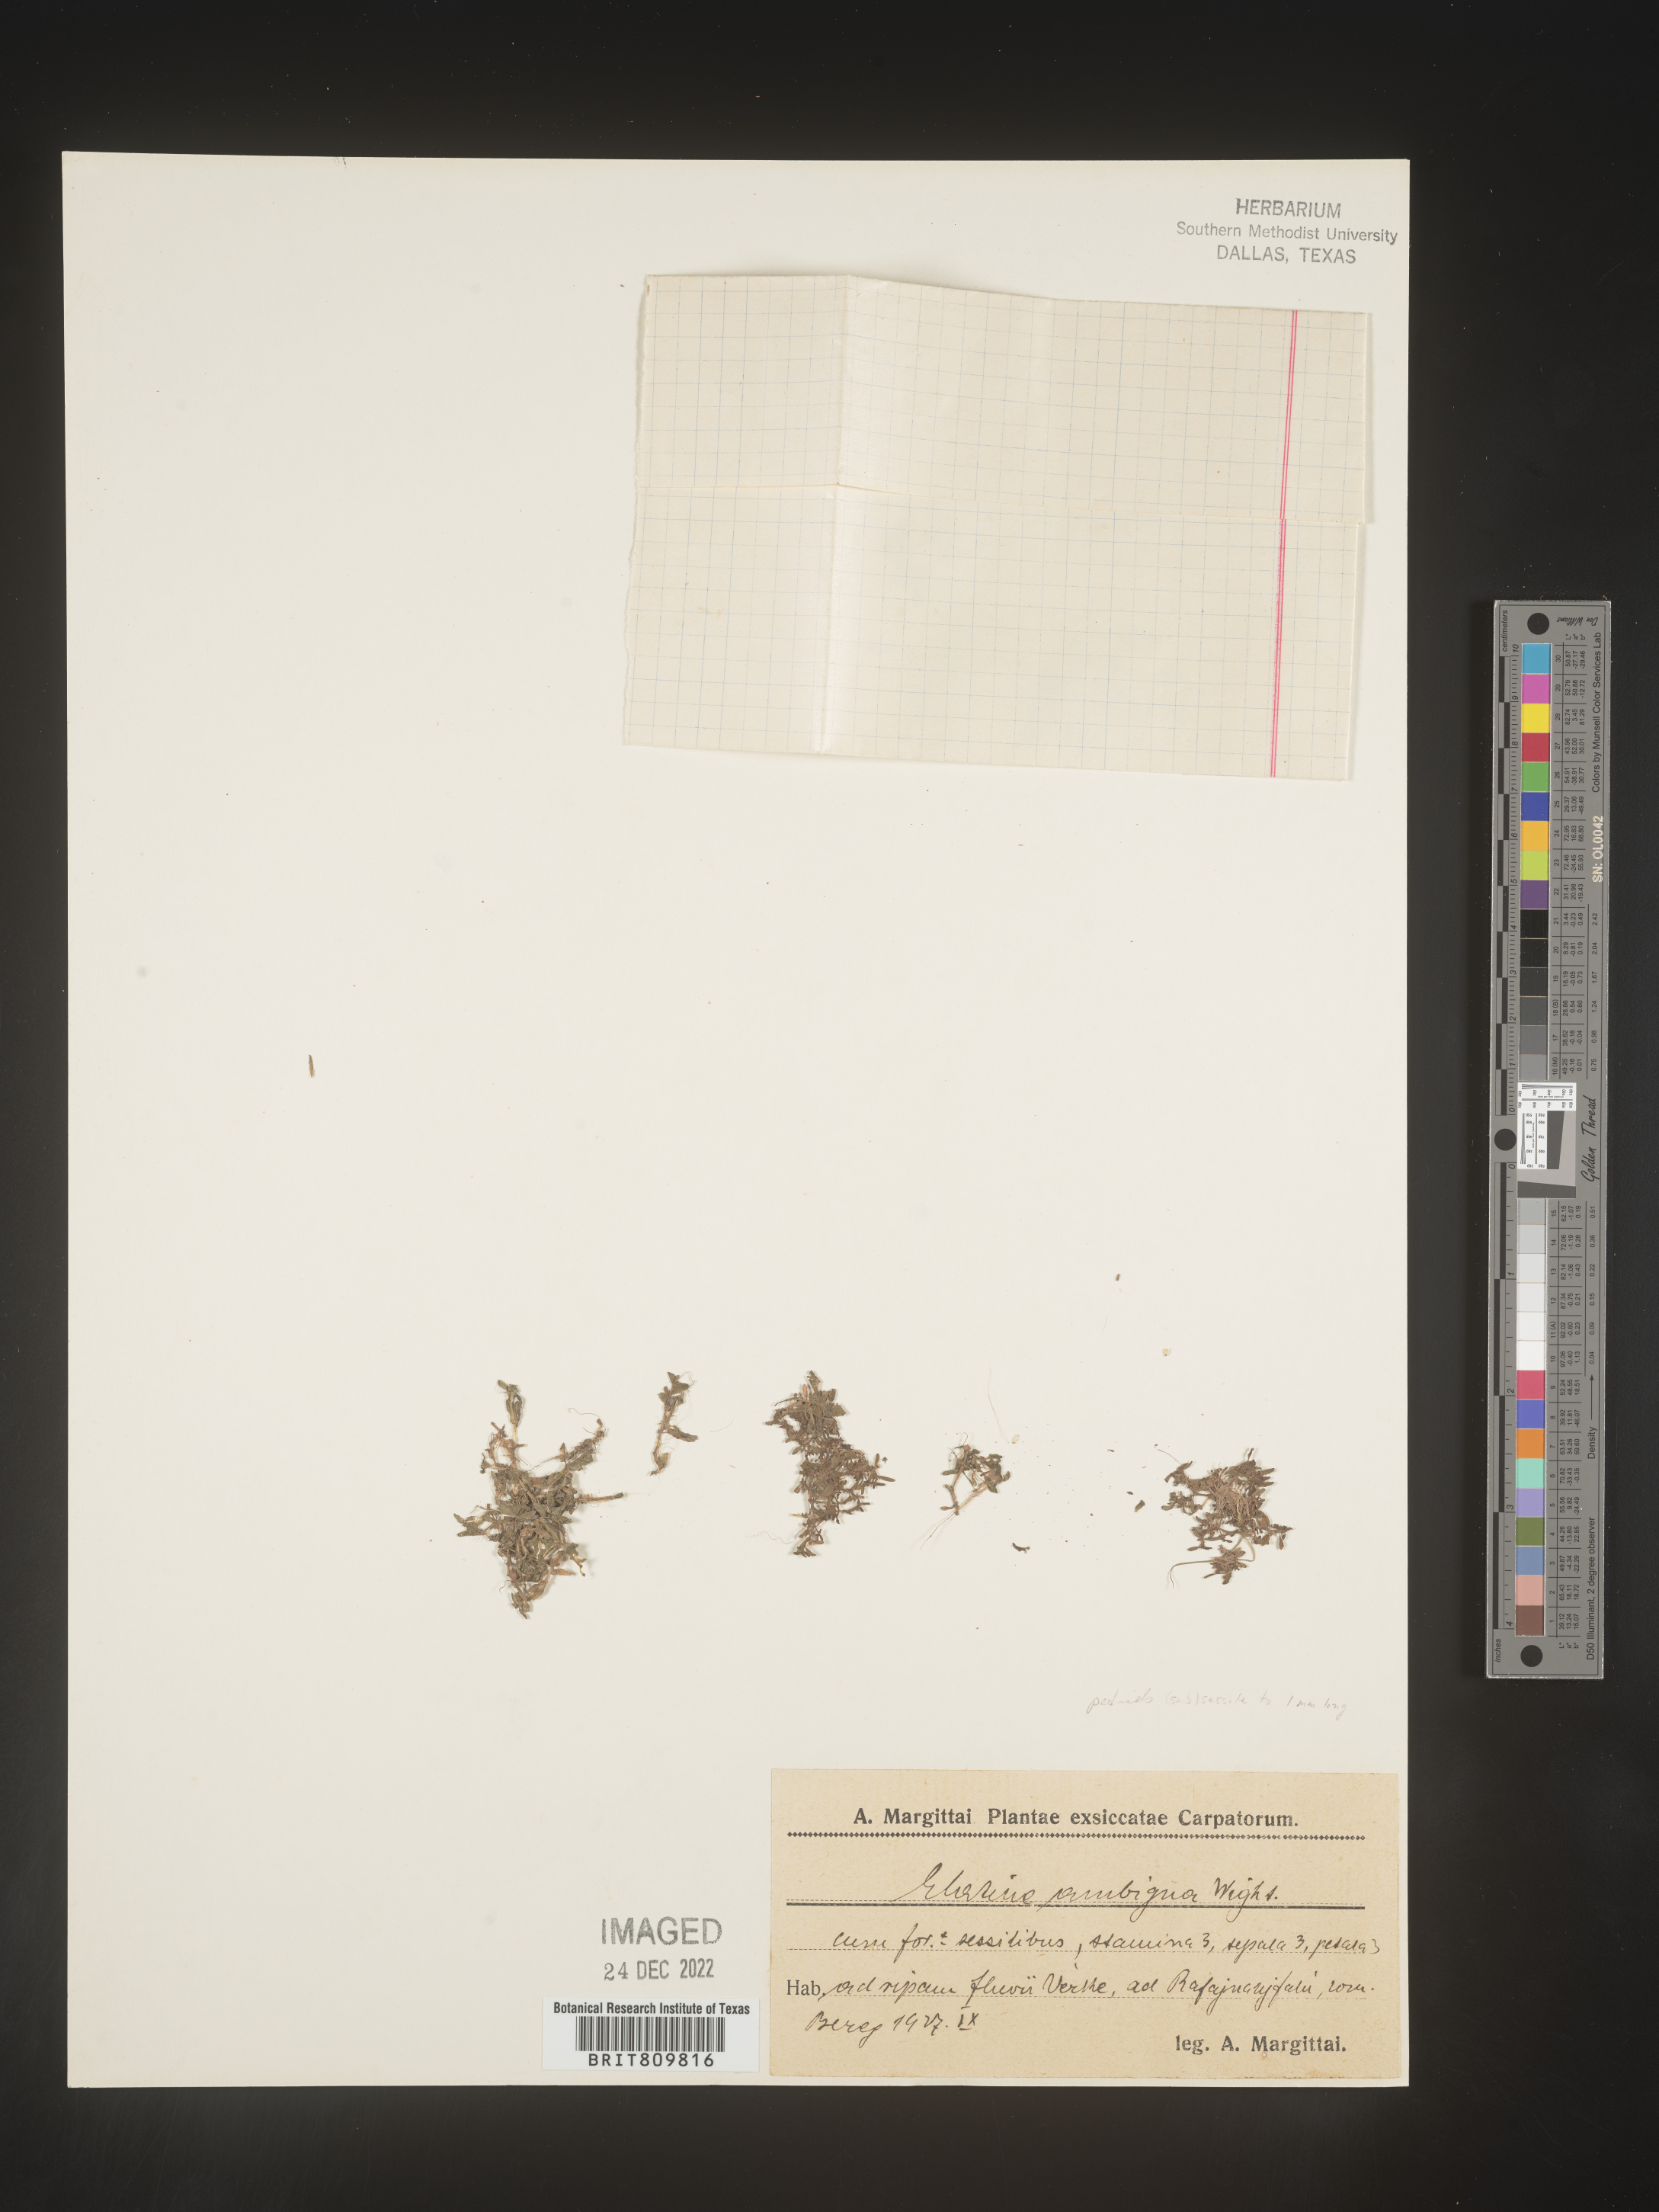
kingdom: Plantae
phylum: Tracheophyta
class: Magnoliopsida
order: Malpighiales
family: Elatinaceae
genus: Elatine
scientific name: Elatine
